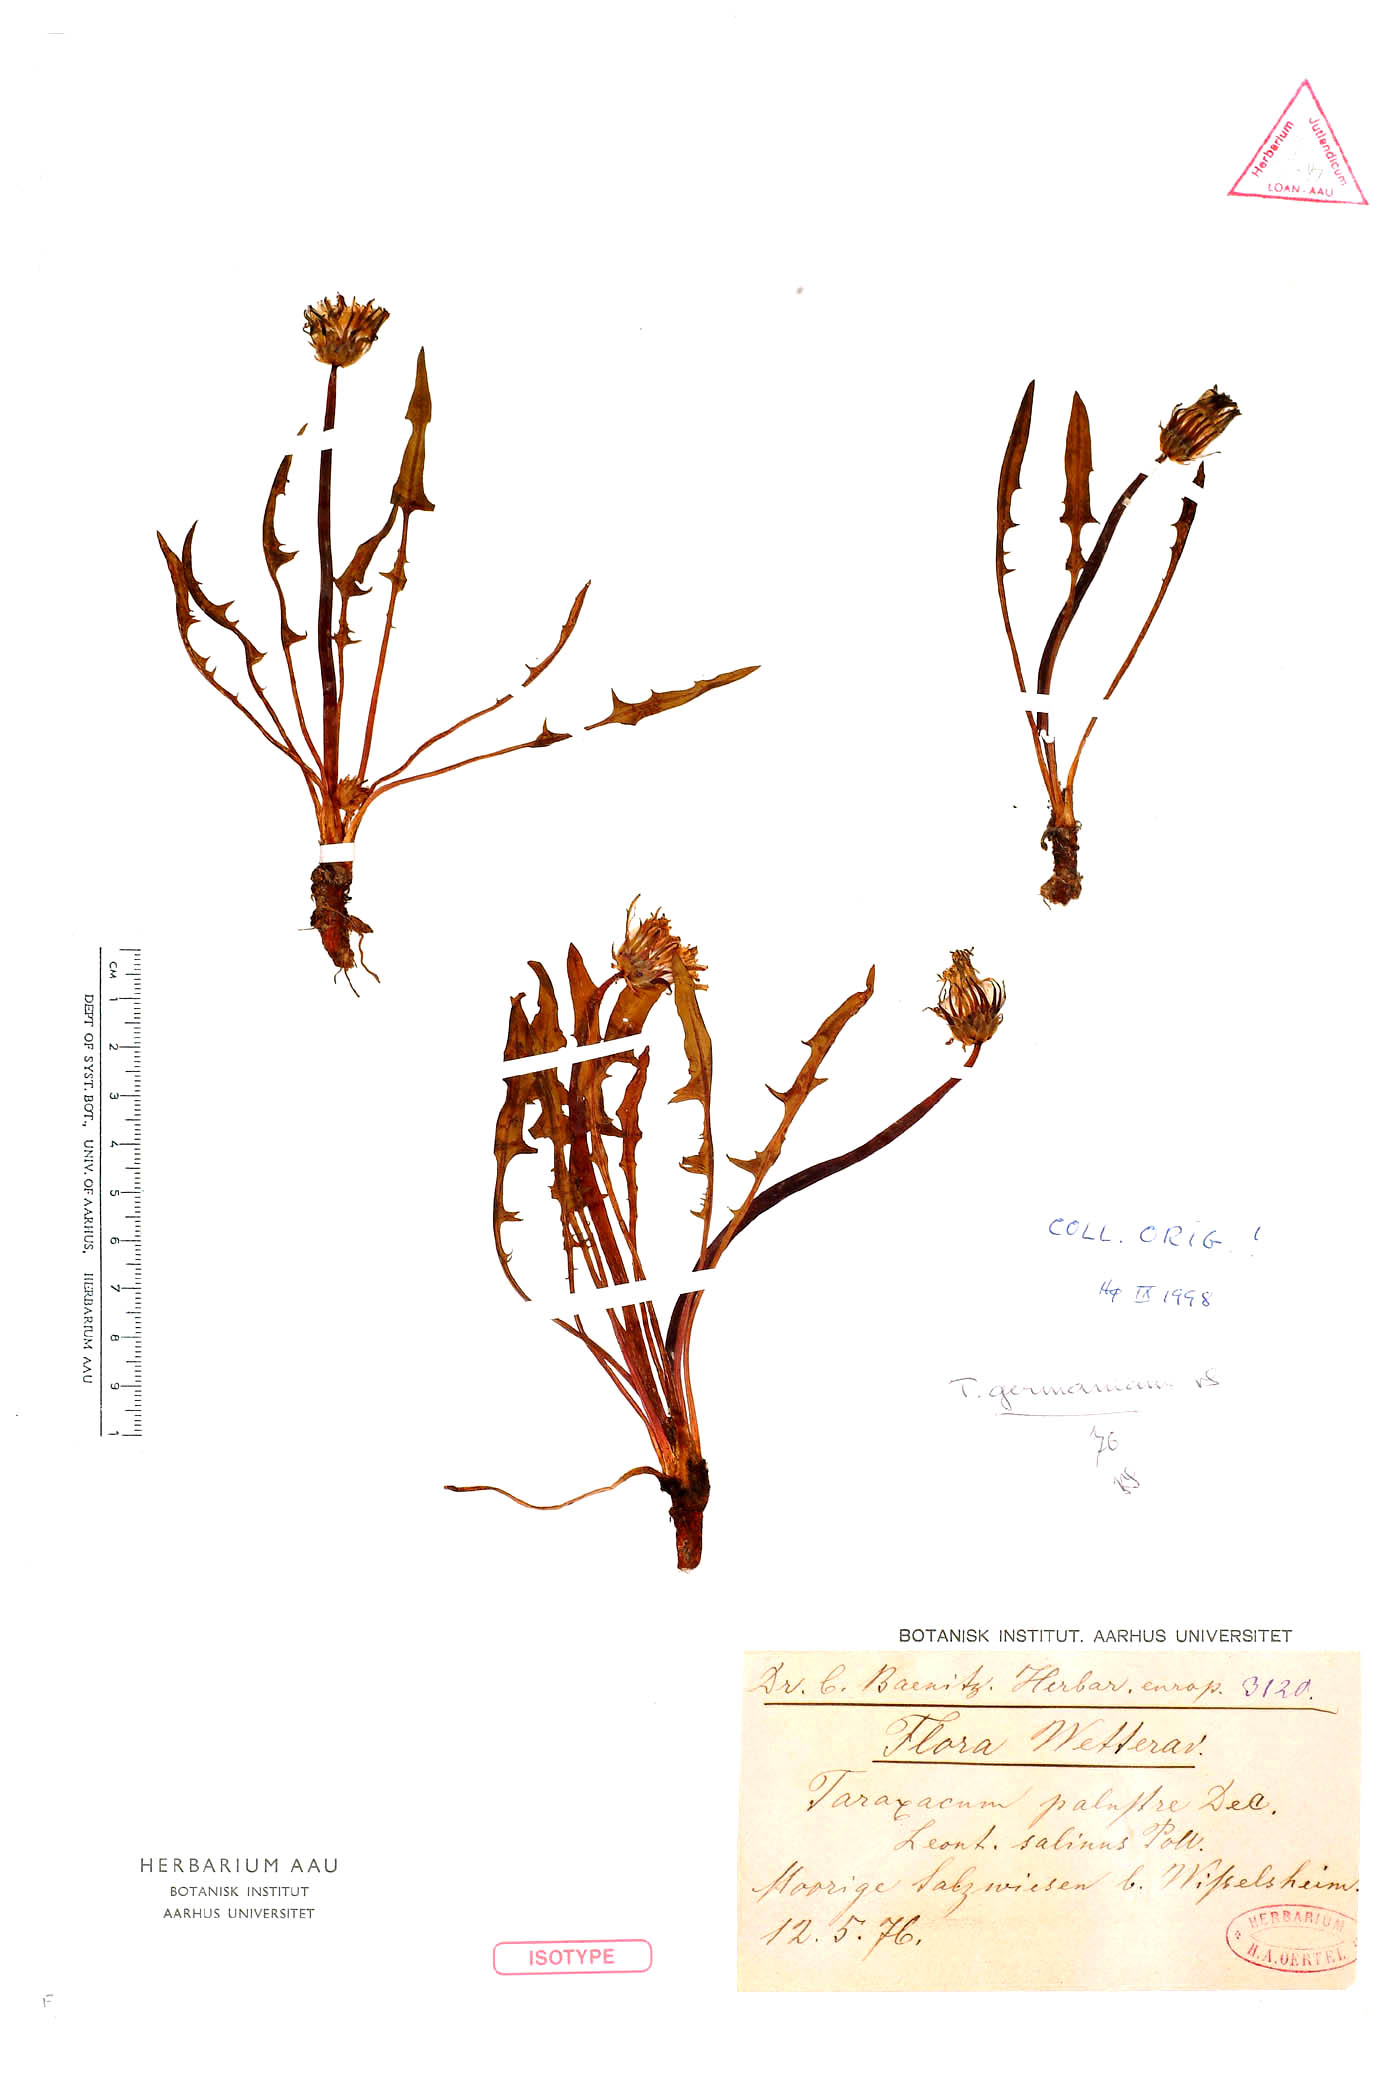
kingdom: Plantae
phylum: Tracheophyta
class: Magnoliopsida
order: Asterales
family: Asteraceae
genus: Taraxacum
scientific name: Taraxacum germanicum
